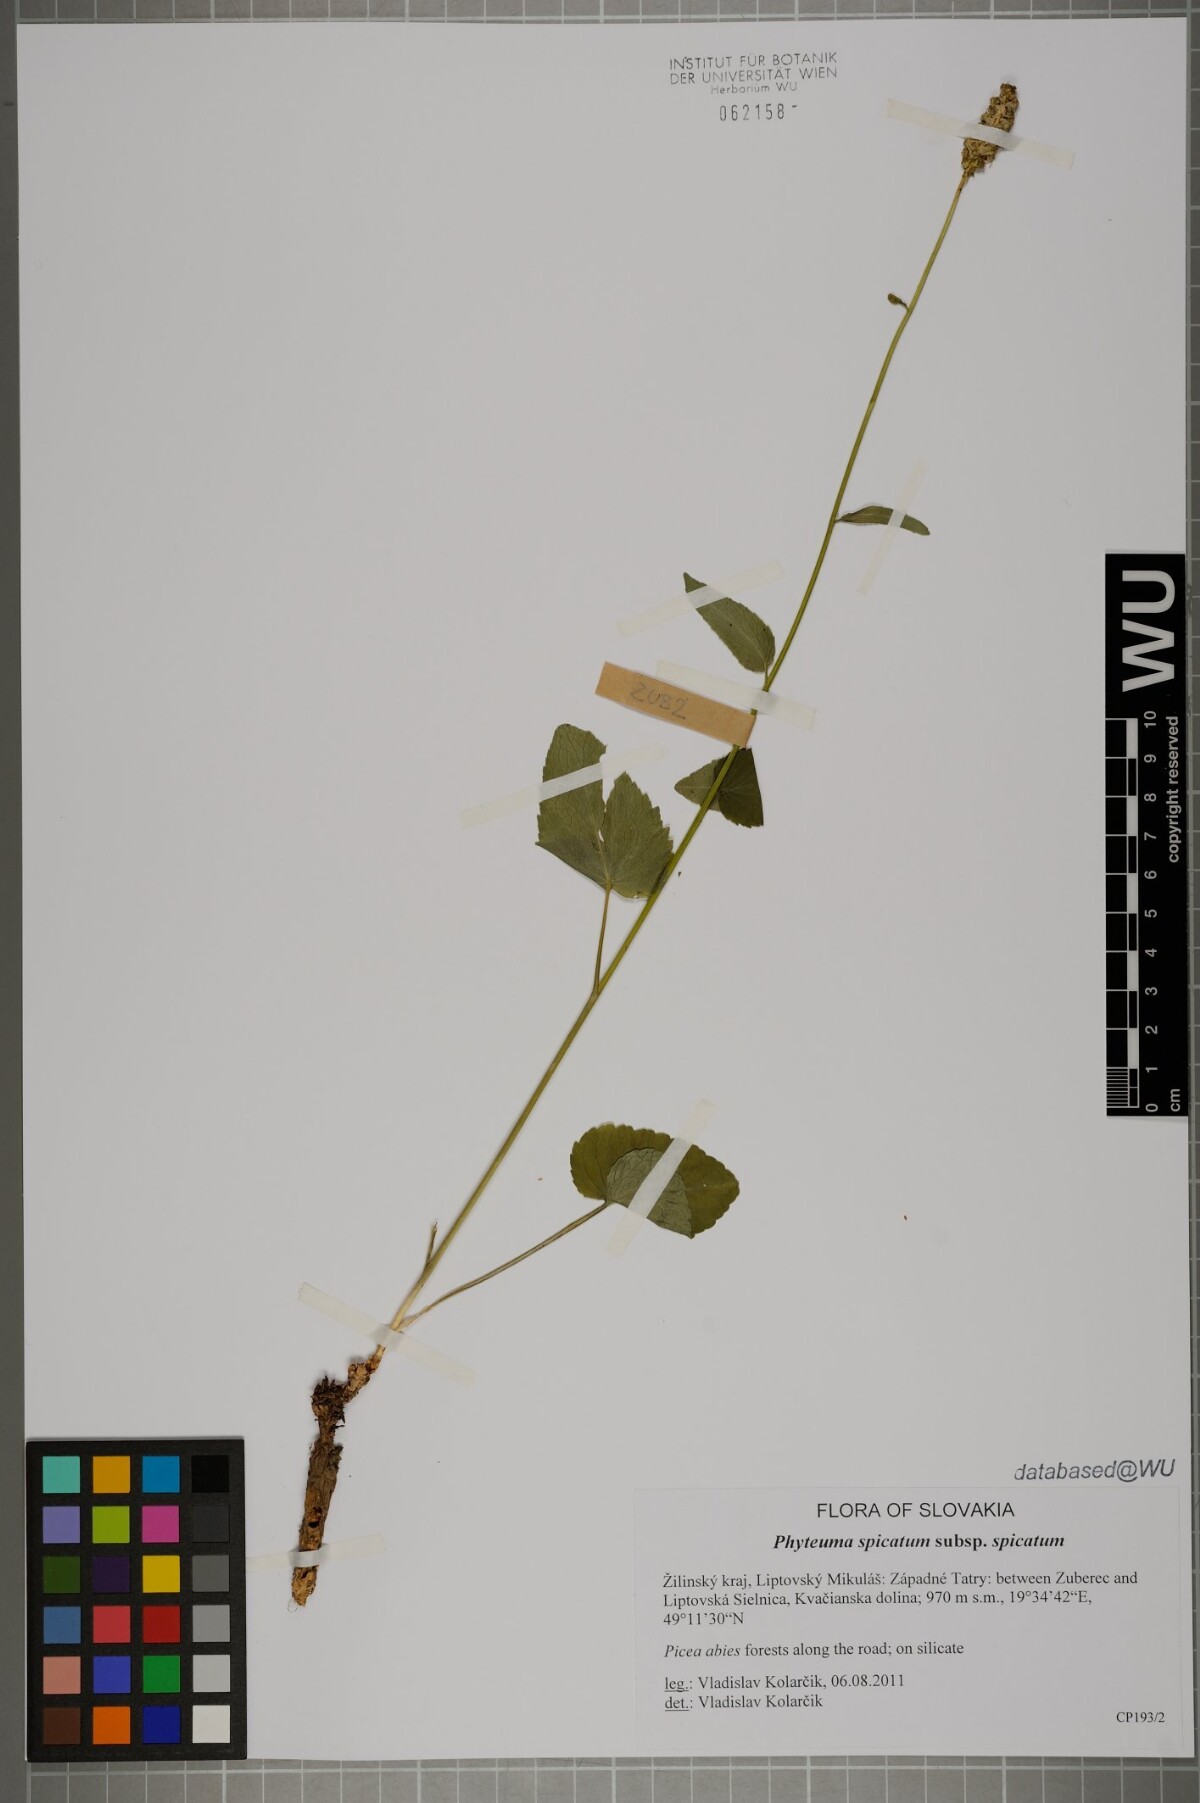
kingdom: Plantae
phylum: Tracheophyta
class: Magnoliopsida
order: Asterales
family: Campanulaceae
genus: Phyteuma
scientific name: Phyteuma spicatum
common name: Spiked rampion
